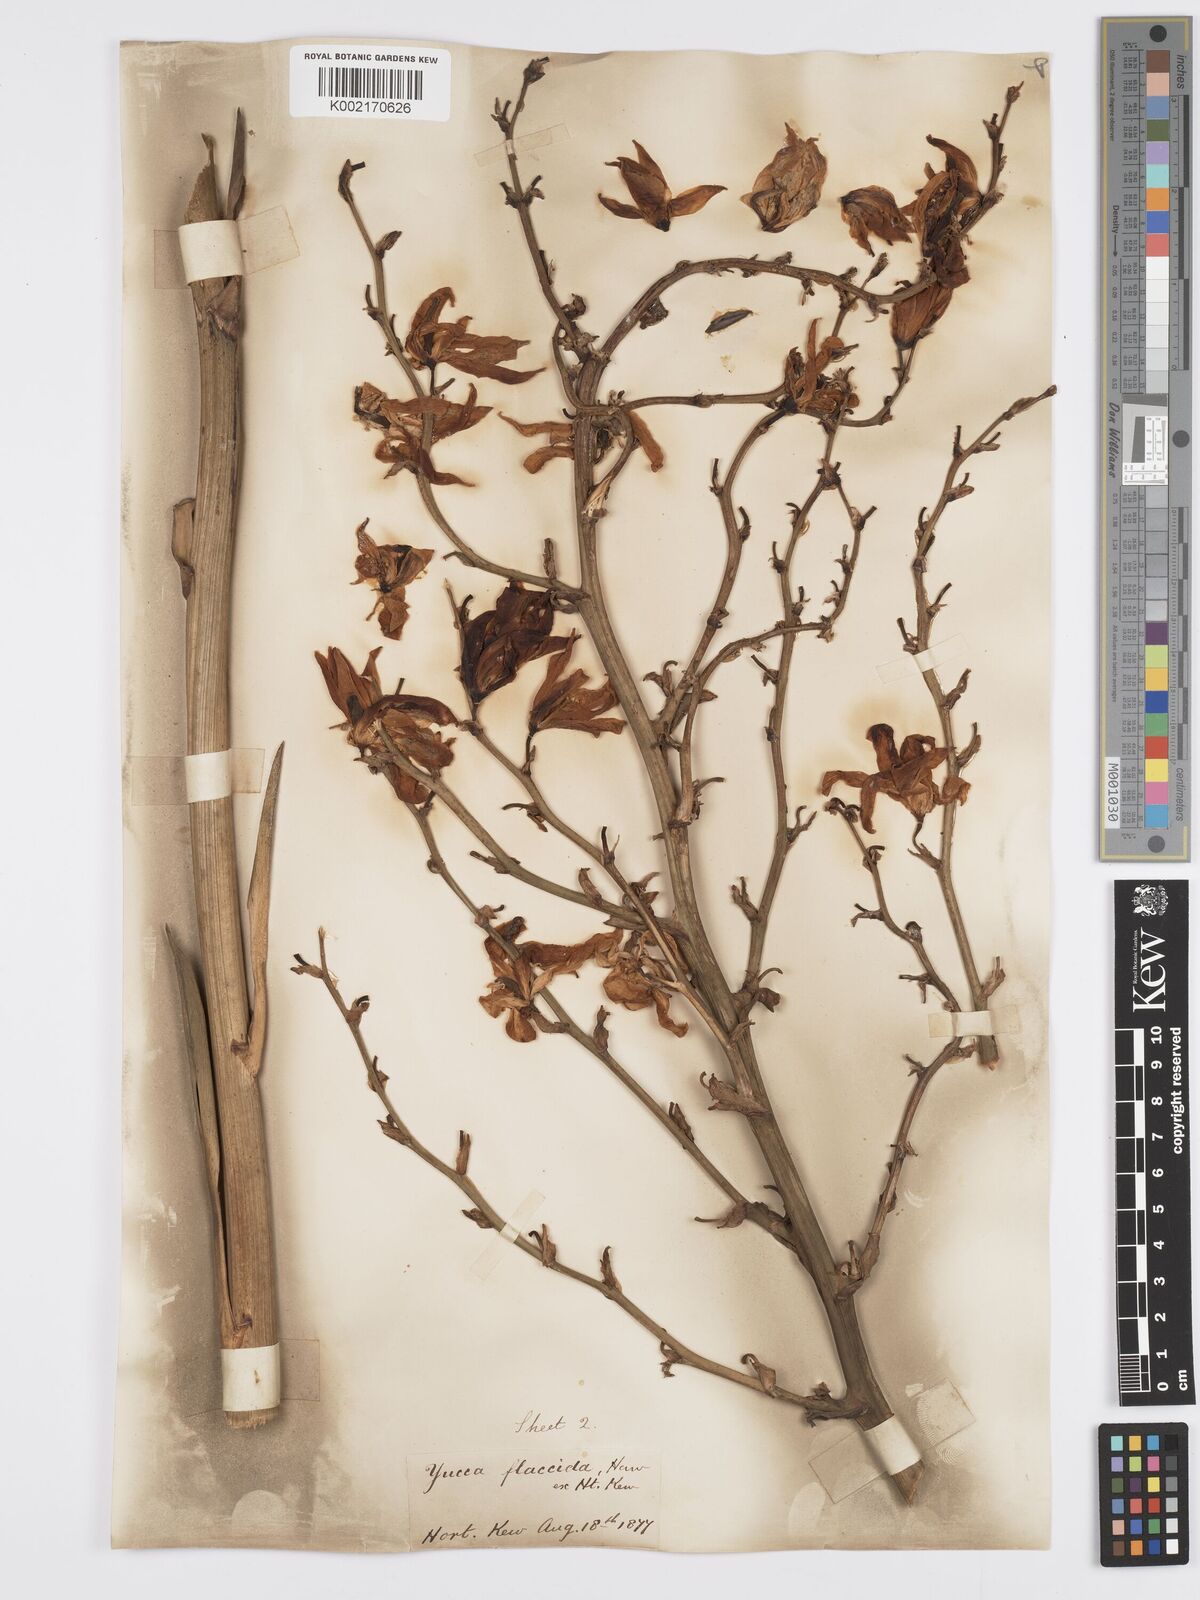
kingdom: Plantae
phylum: Tracheophyta
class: Liliopsida
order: Asparagales
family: Asparagaceae
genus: Yucca
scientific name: Yucca flaccida
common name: Adam's-needle
